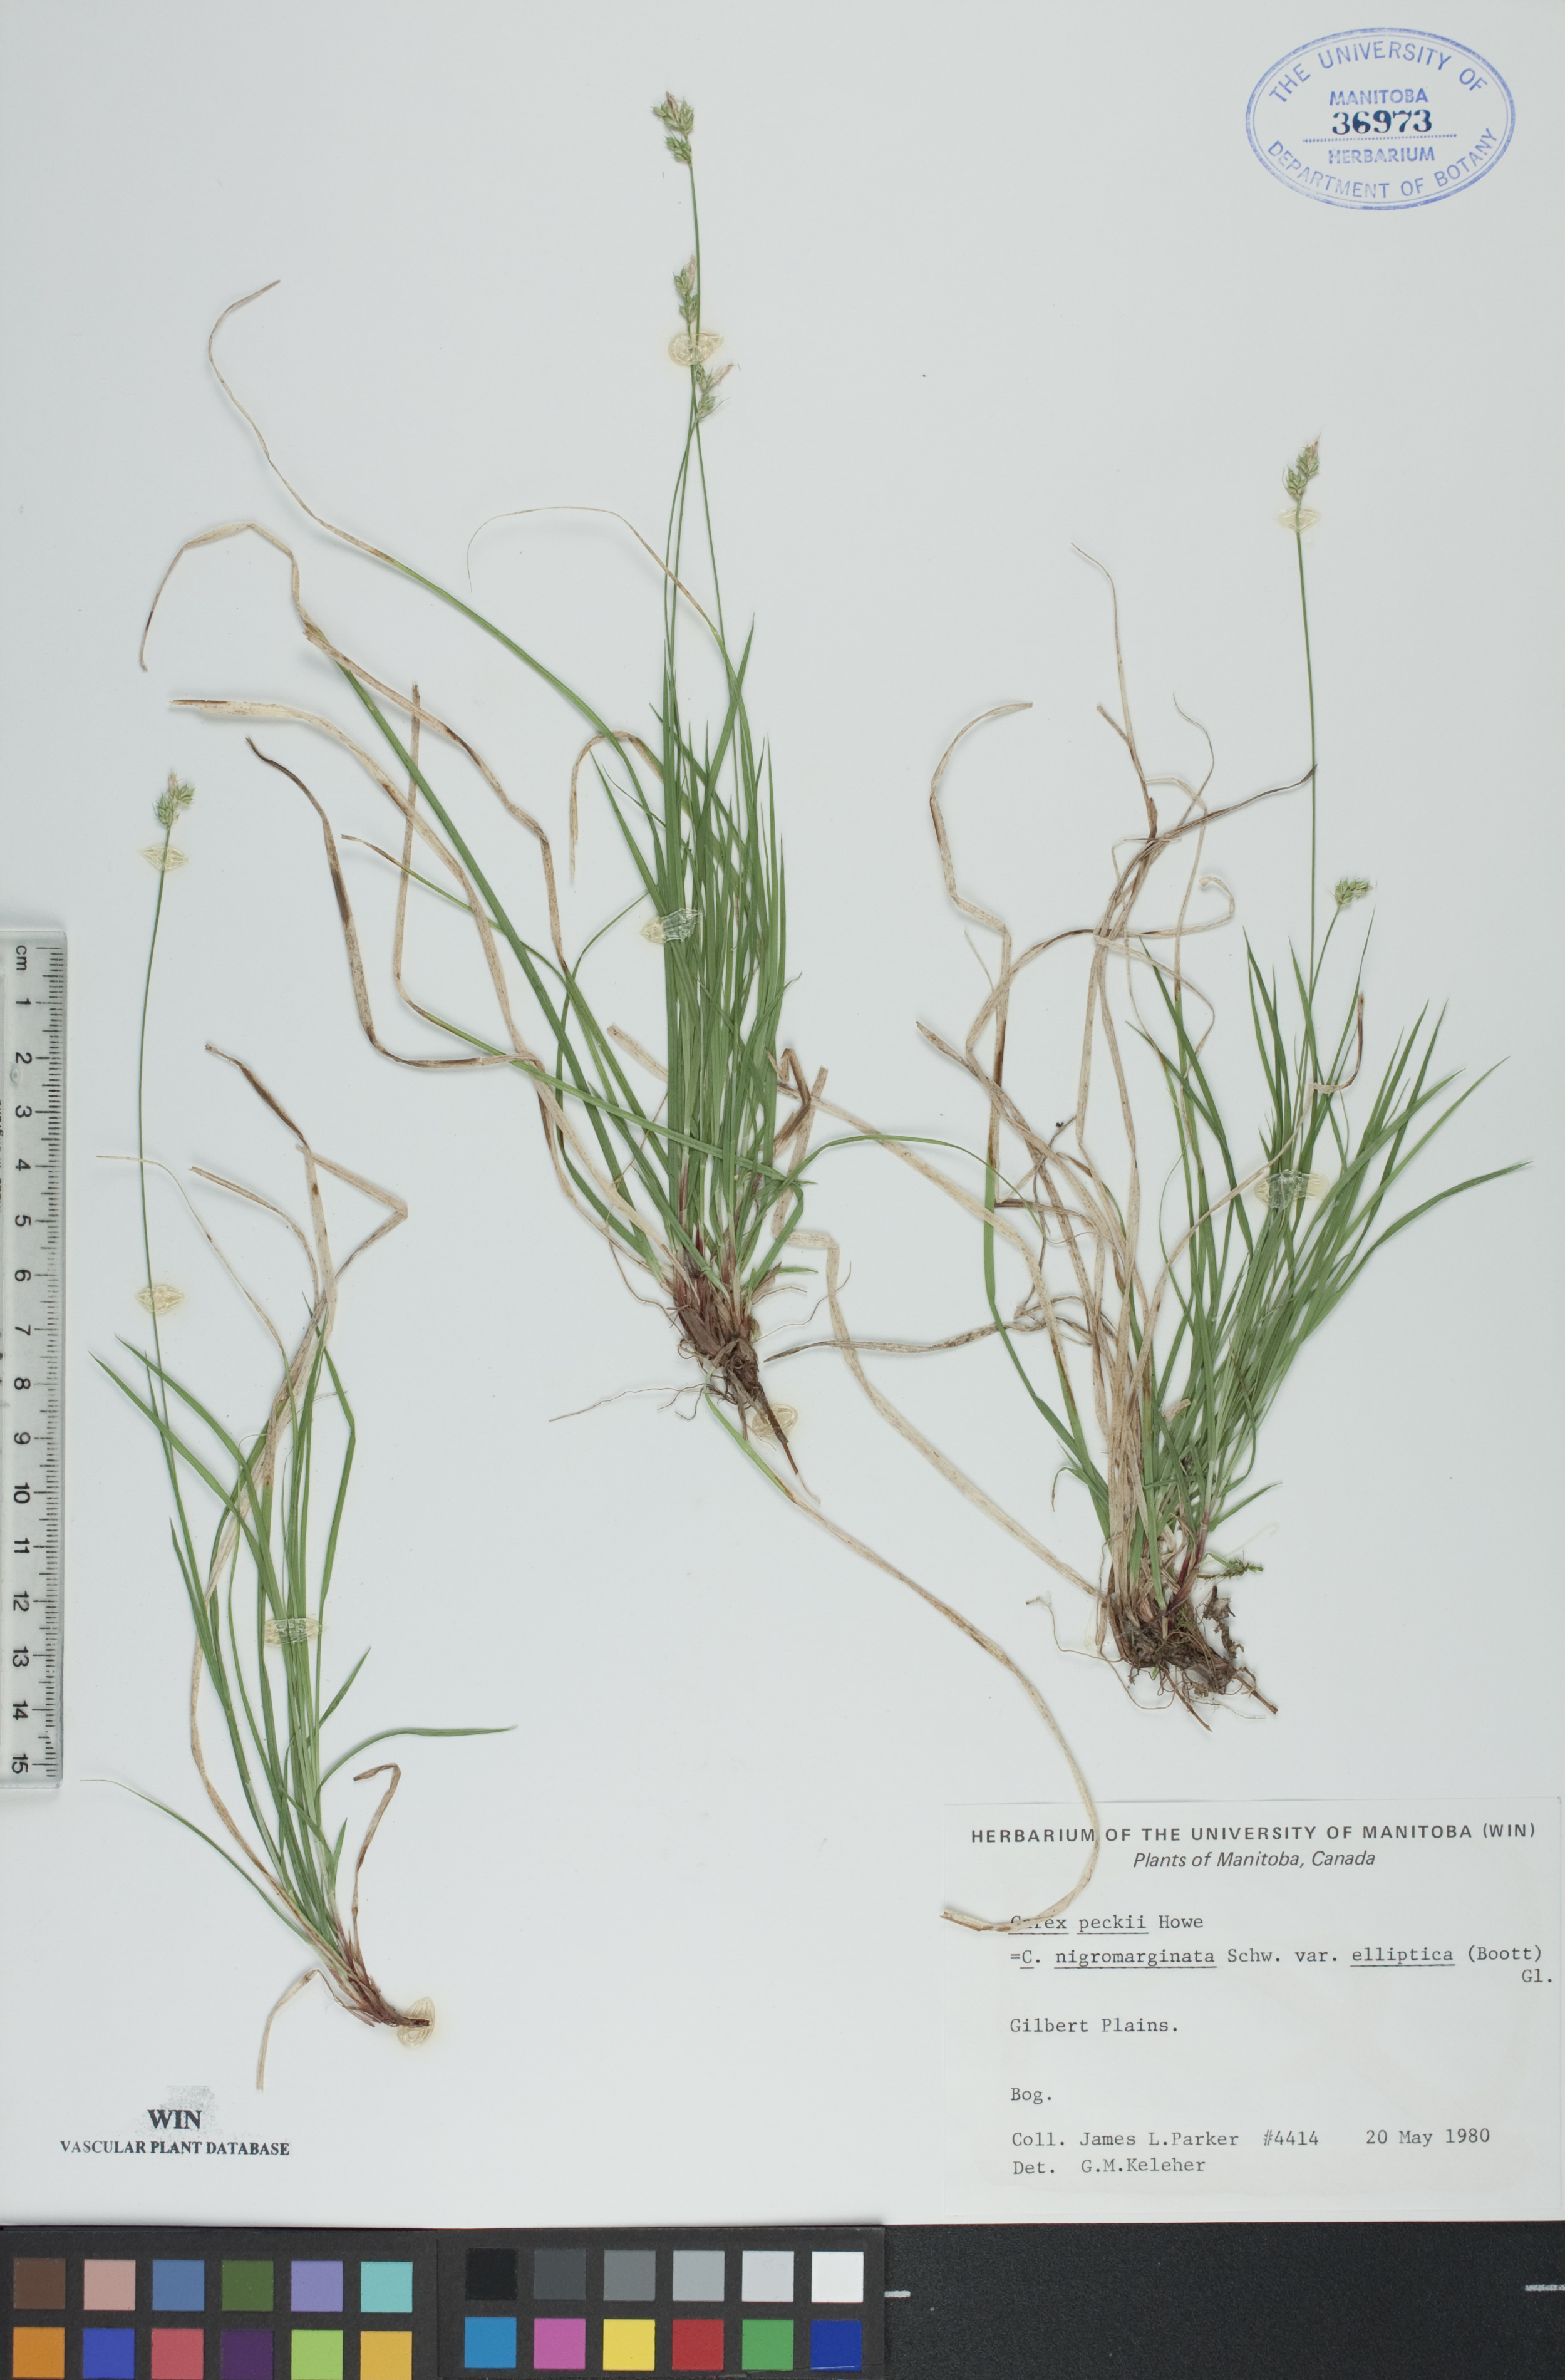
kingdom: Plantae
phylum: Tracheophyta
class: Liliopsida
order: Poales
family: Cyperaceae
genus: Carex
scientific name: Carex peckii
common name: Peck's oak sedge
